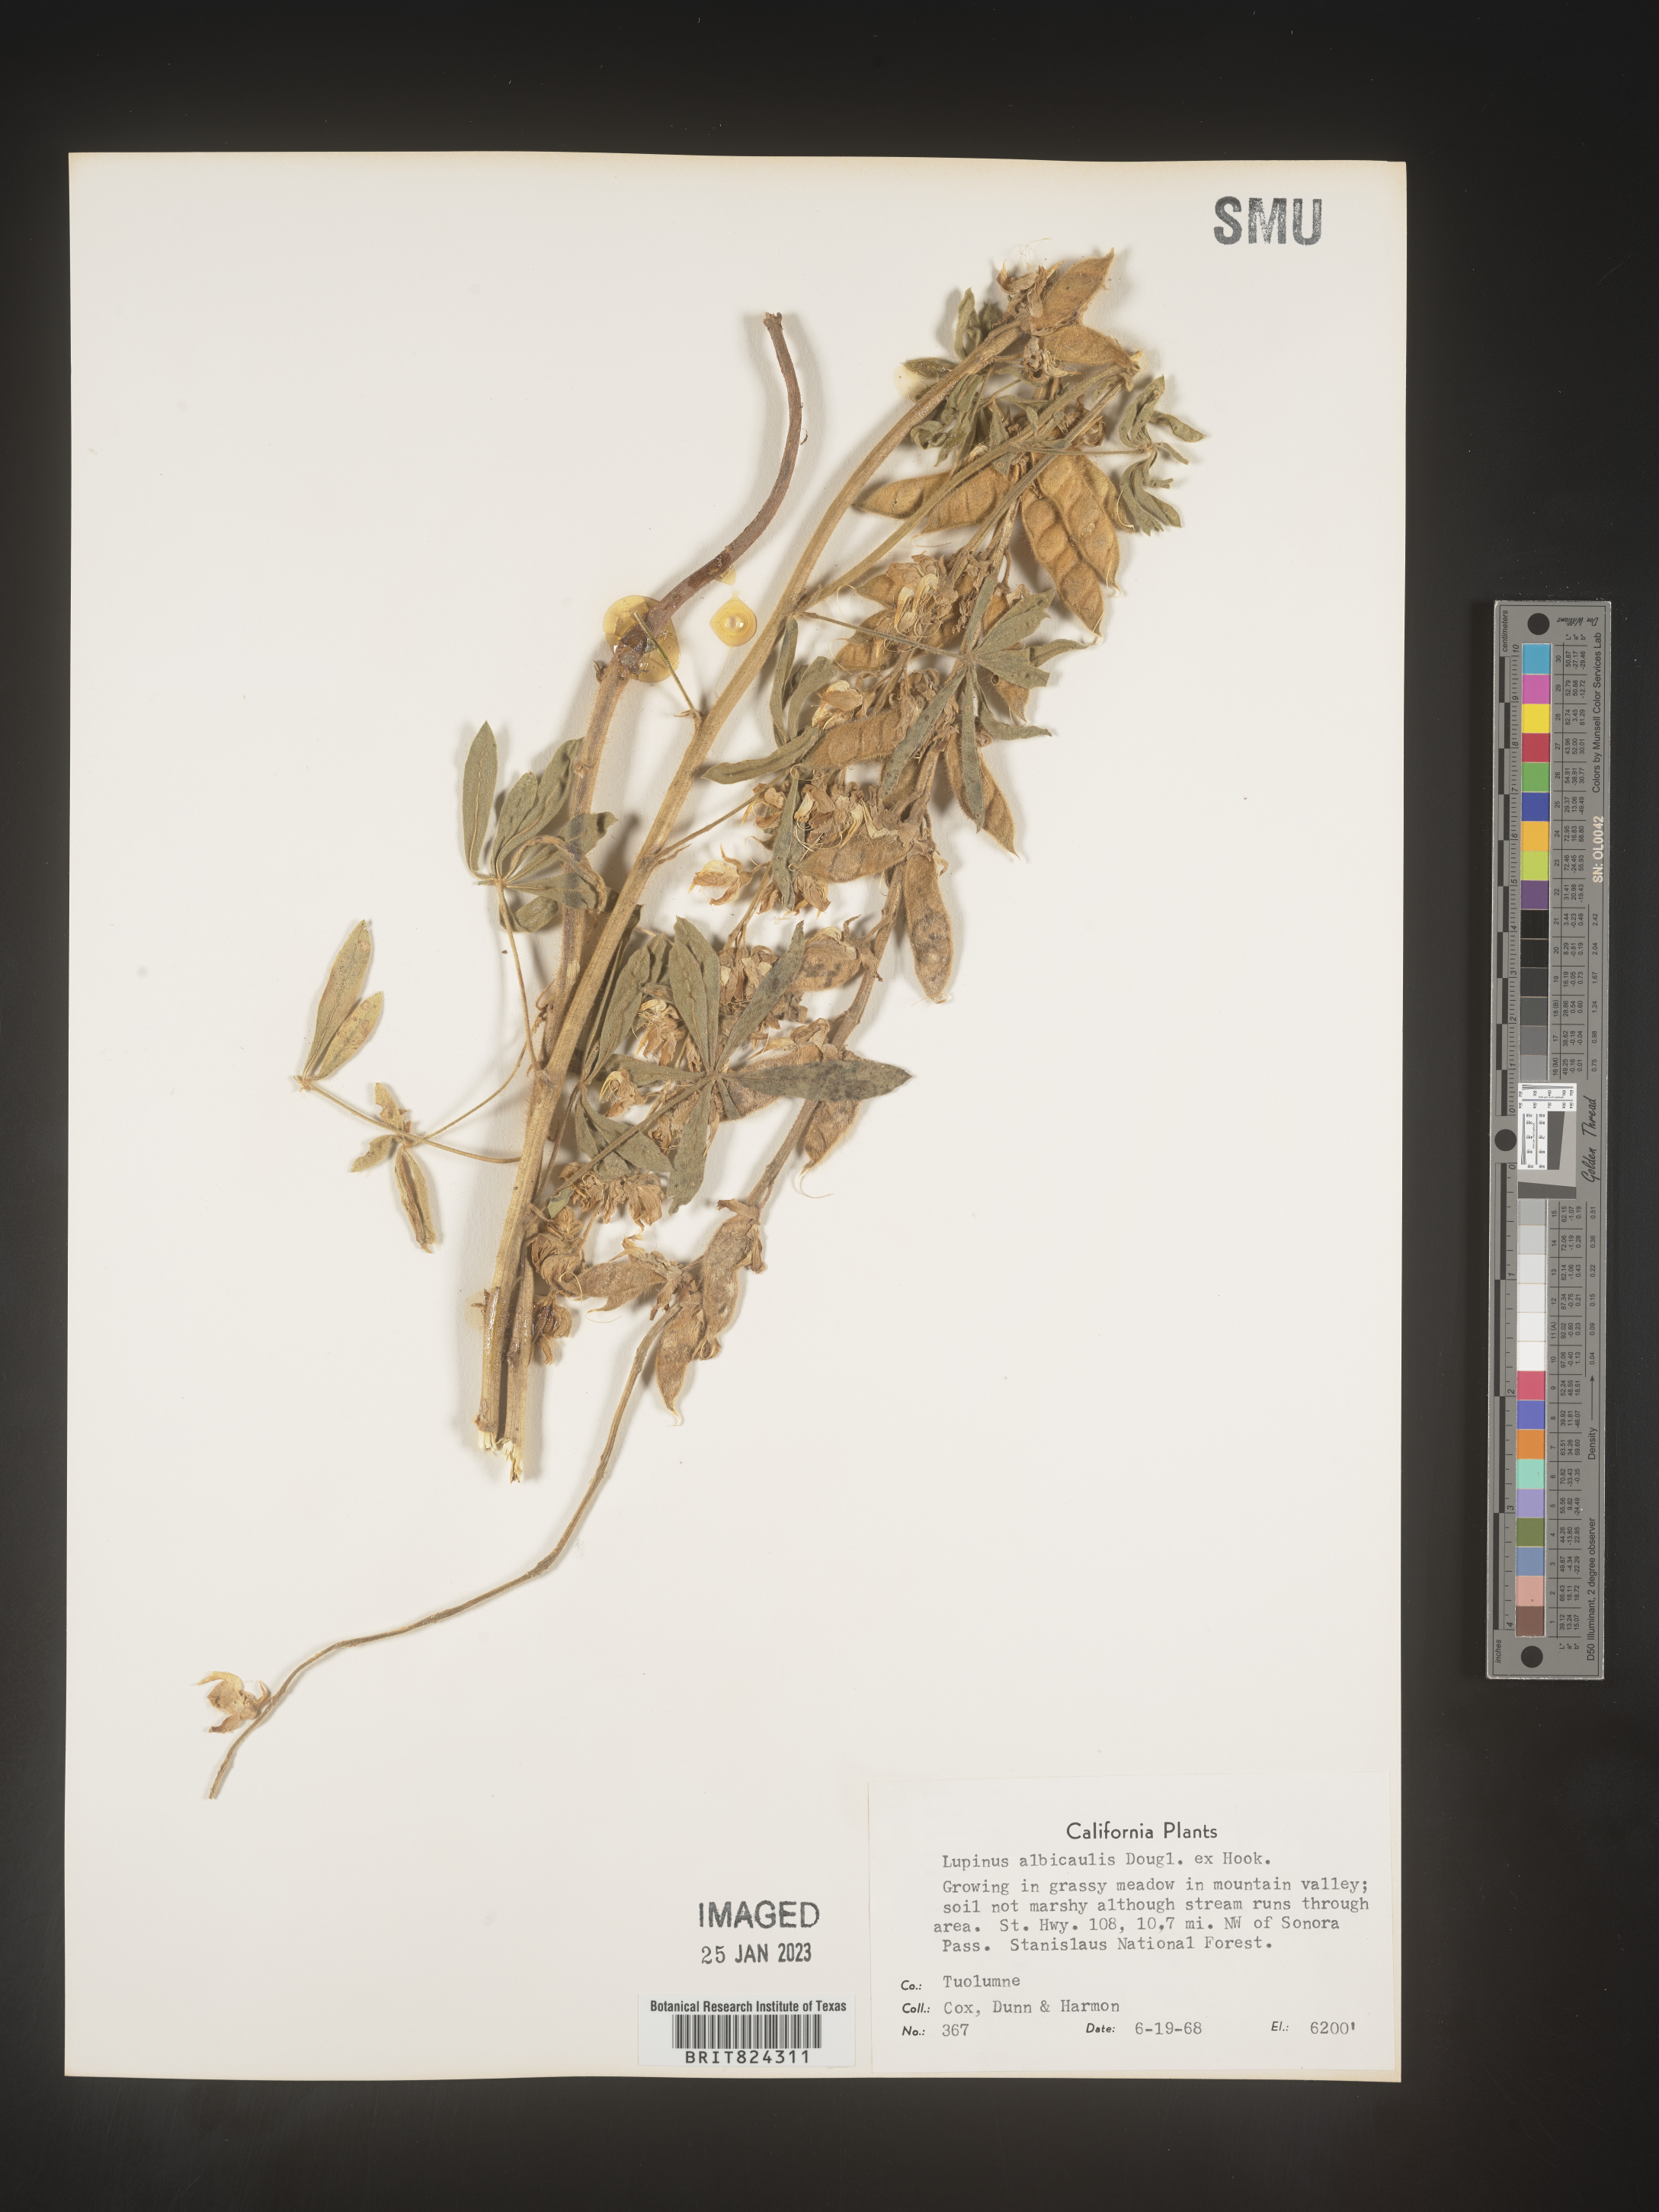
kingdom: Plantae
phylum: Tracheophyta
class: Magnoliopsida
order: Fabales
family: Fabaceae
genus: Lupinus
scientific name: Lupinus albicaulis
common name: Pine lupine
